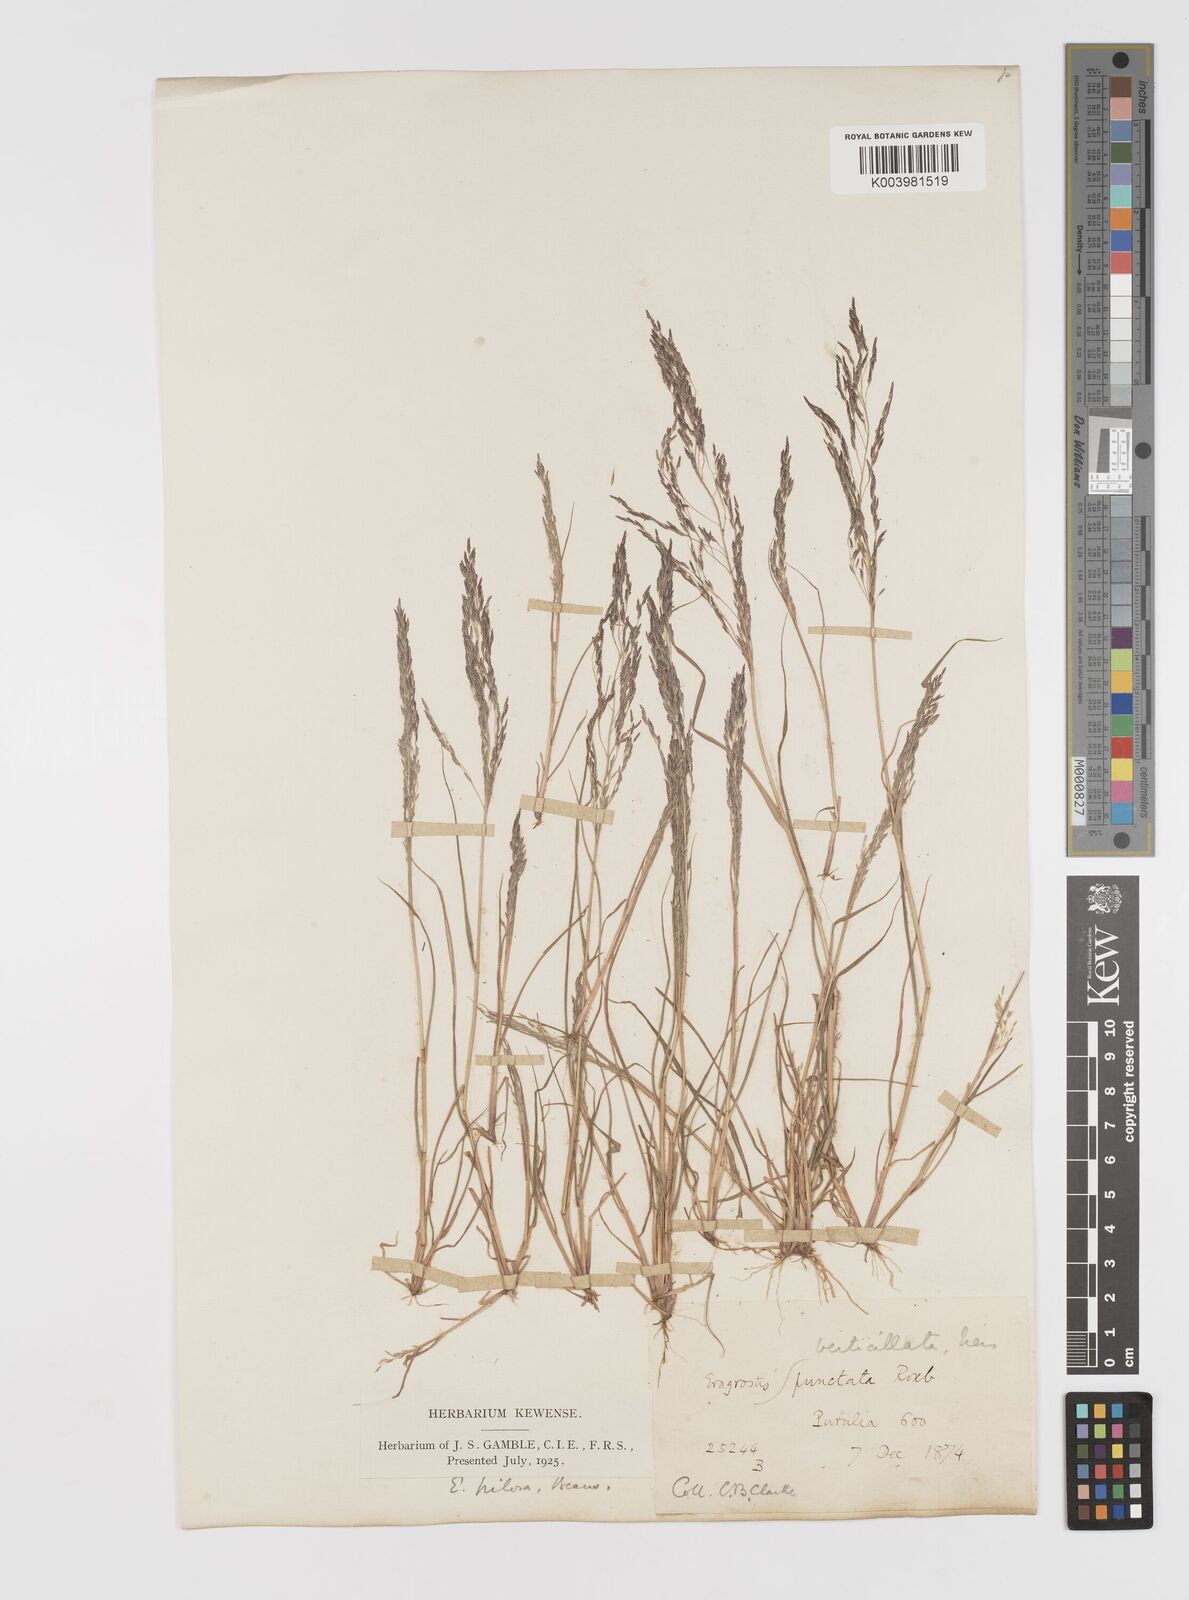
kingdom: Plantae
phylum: Tracheophyta
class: Liliopsida
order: Poales
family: Poaceae
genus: Eragrostis
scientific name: Eragrostis pilosa
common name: Indian lovegrass
